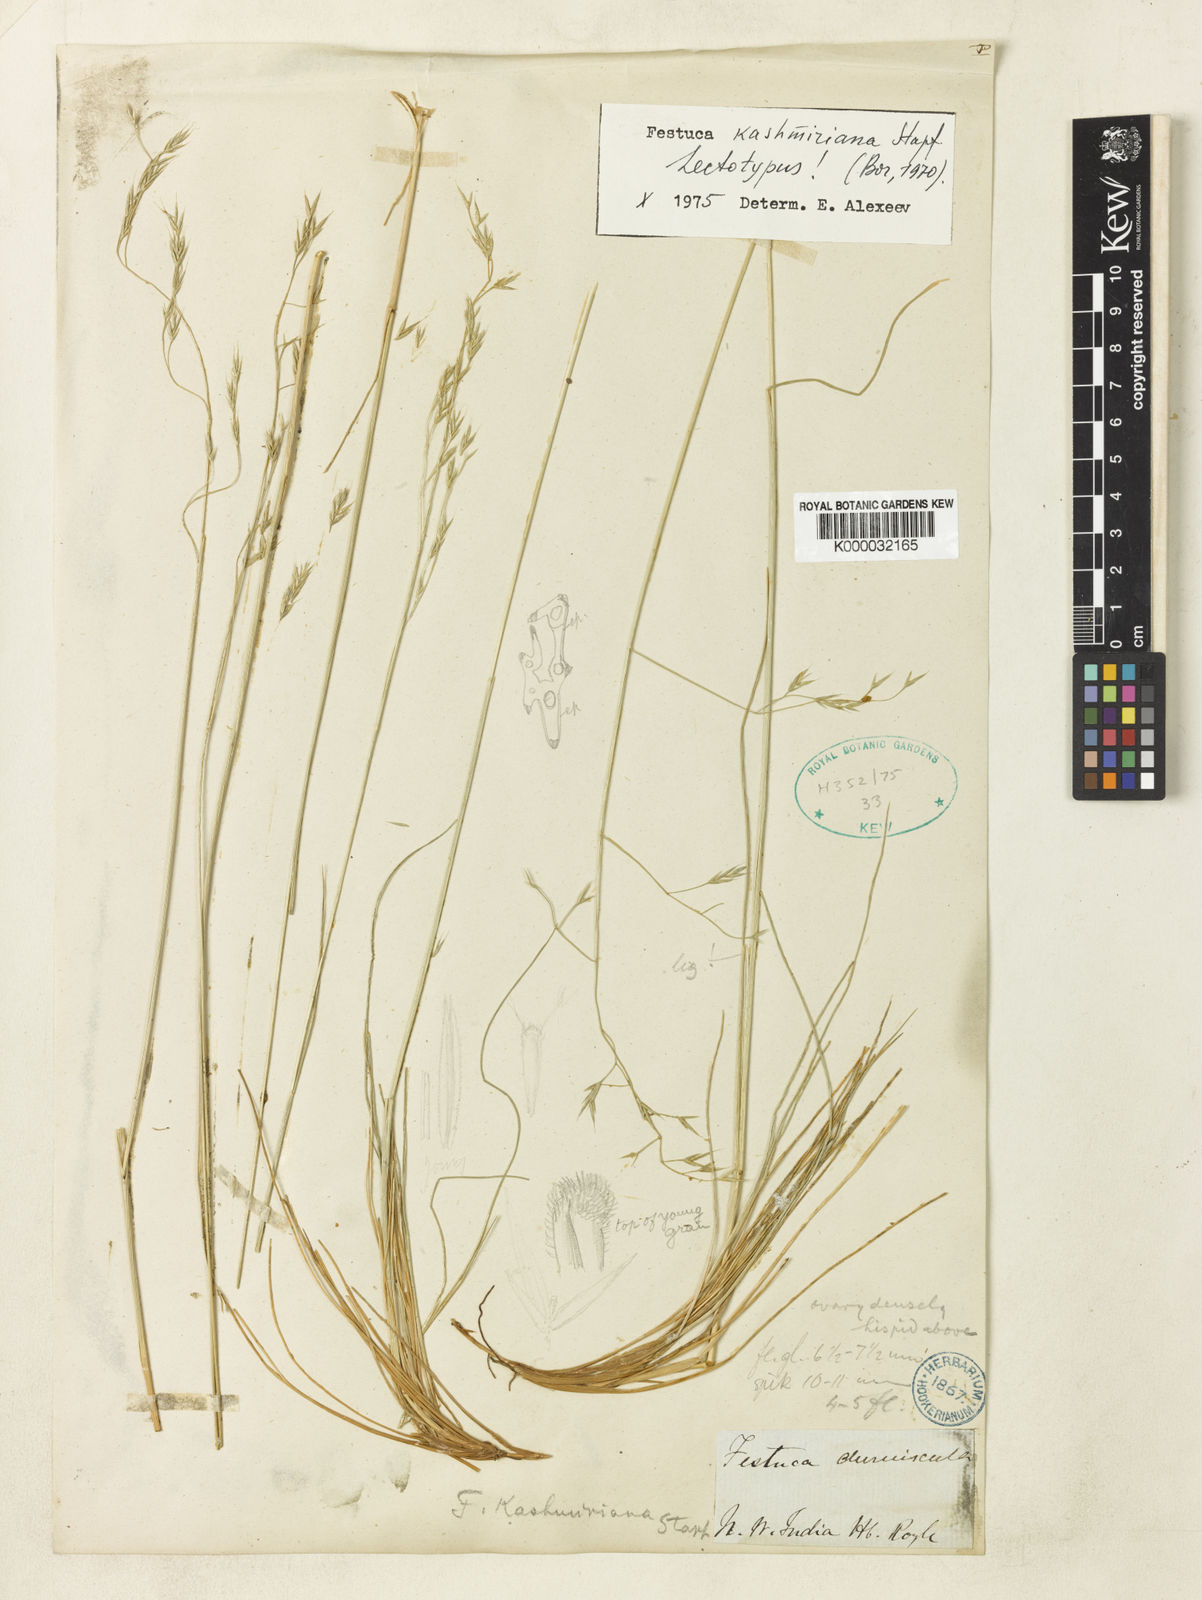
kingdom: Plantae
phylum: Tracheophyta
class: Liliopsida
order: Poales
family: Poaceae
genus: Festuca
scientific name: Festuca kashmiriana
